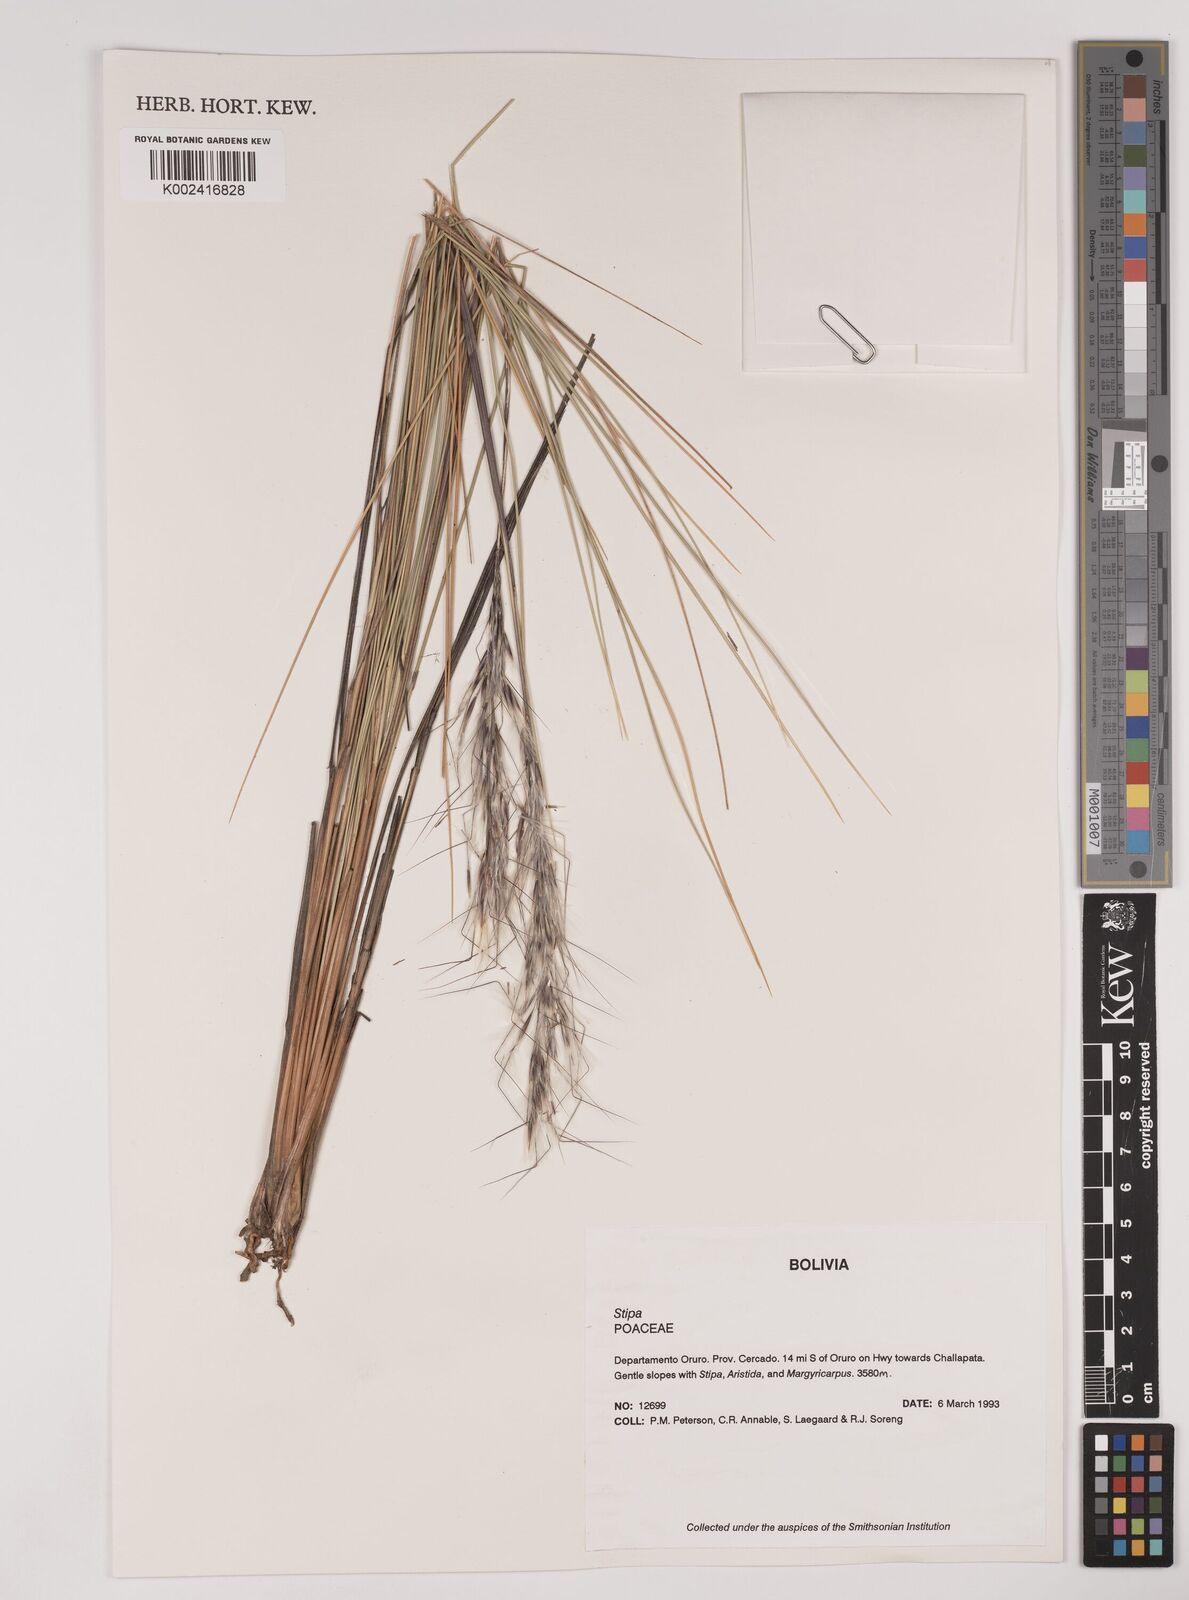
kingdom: Plantae
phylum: Tracheophyta
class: Liliopsida
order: Poales
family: Poaceae
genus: Pappostipa
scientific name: Pappostipa vaginata
